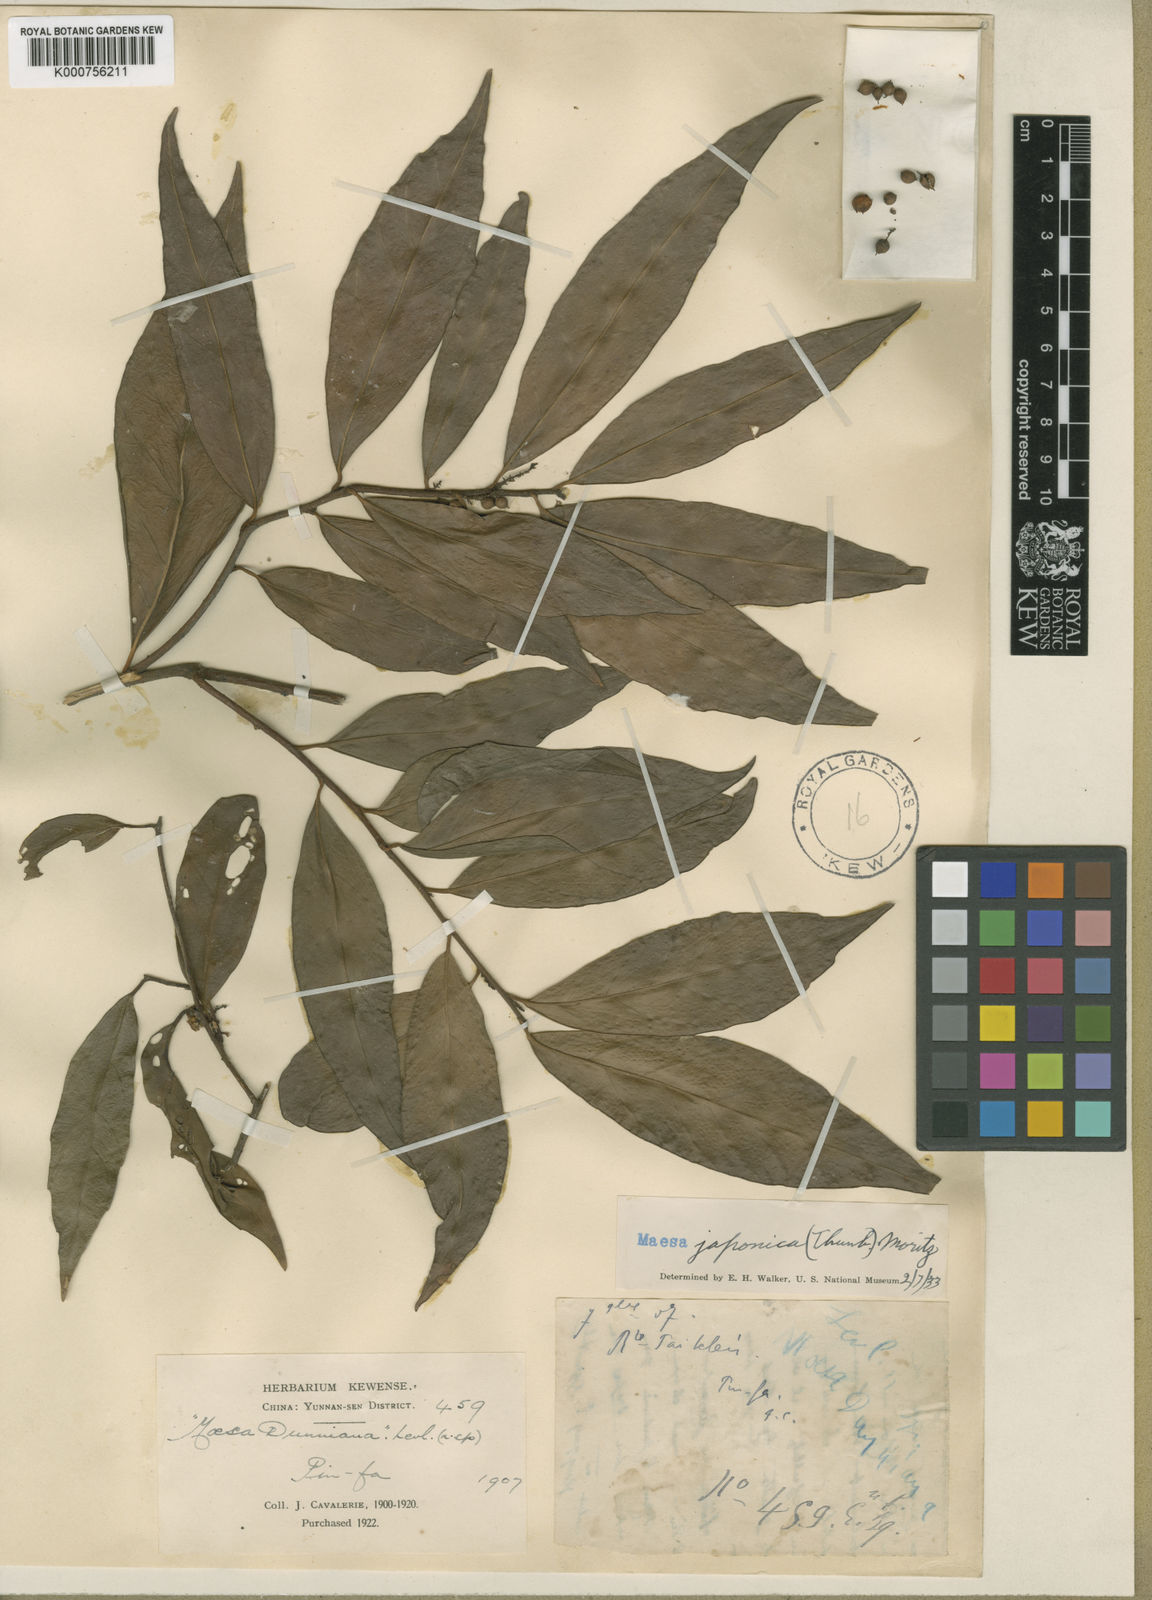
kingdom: Plantae
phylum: Tracheophyta
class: Magnoliopsida
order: Ericales
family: Primulaceae
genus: Maesa
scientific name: Maesa japonica
